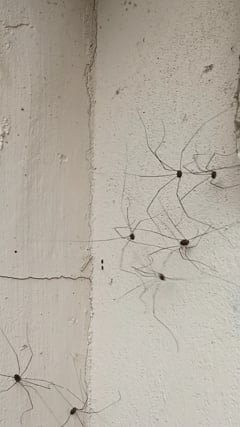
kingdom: Animalia
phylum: Arthropoda
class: Arachnida
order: Opiliones
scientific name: Opiliones
